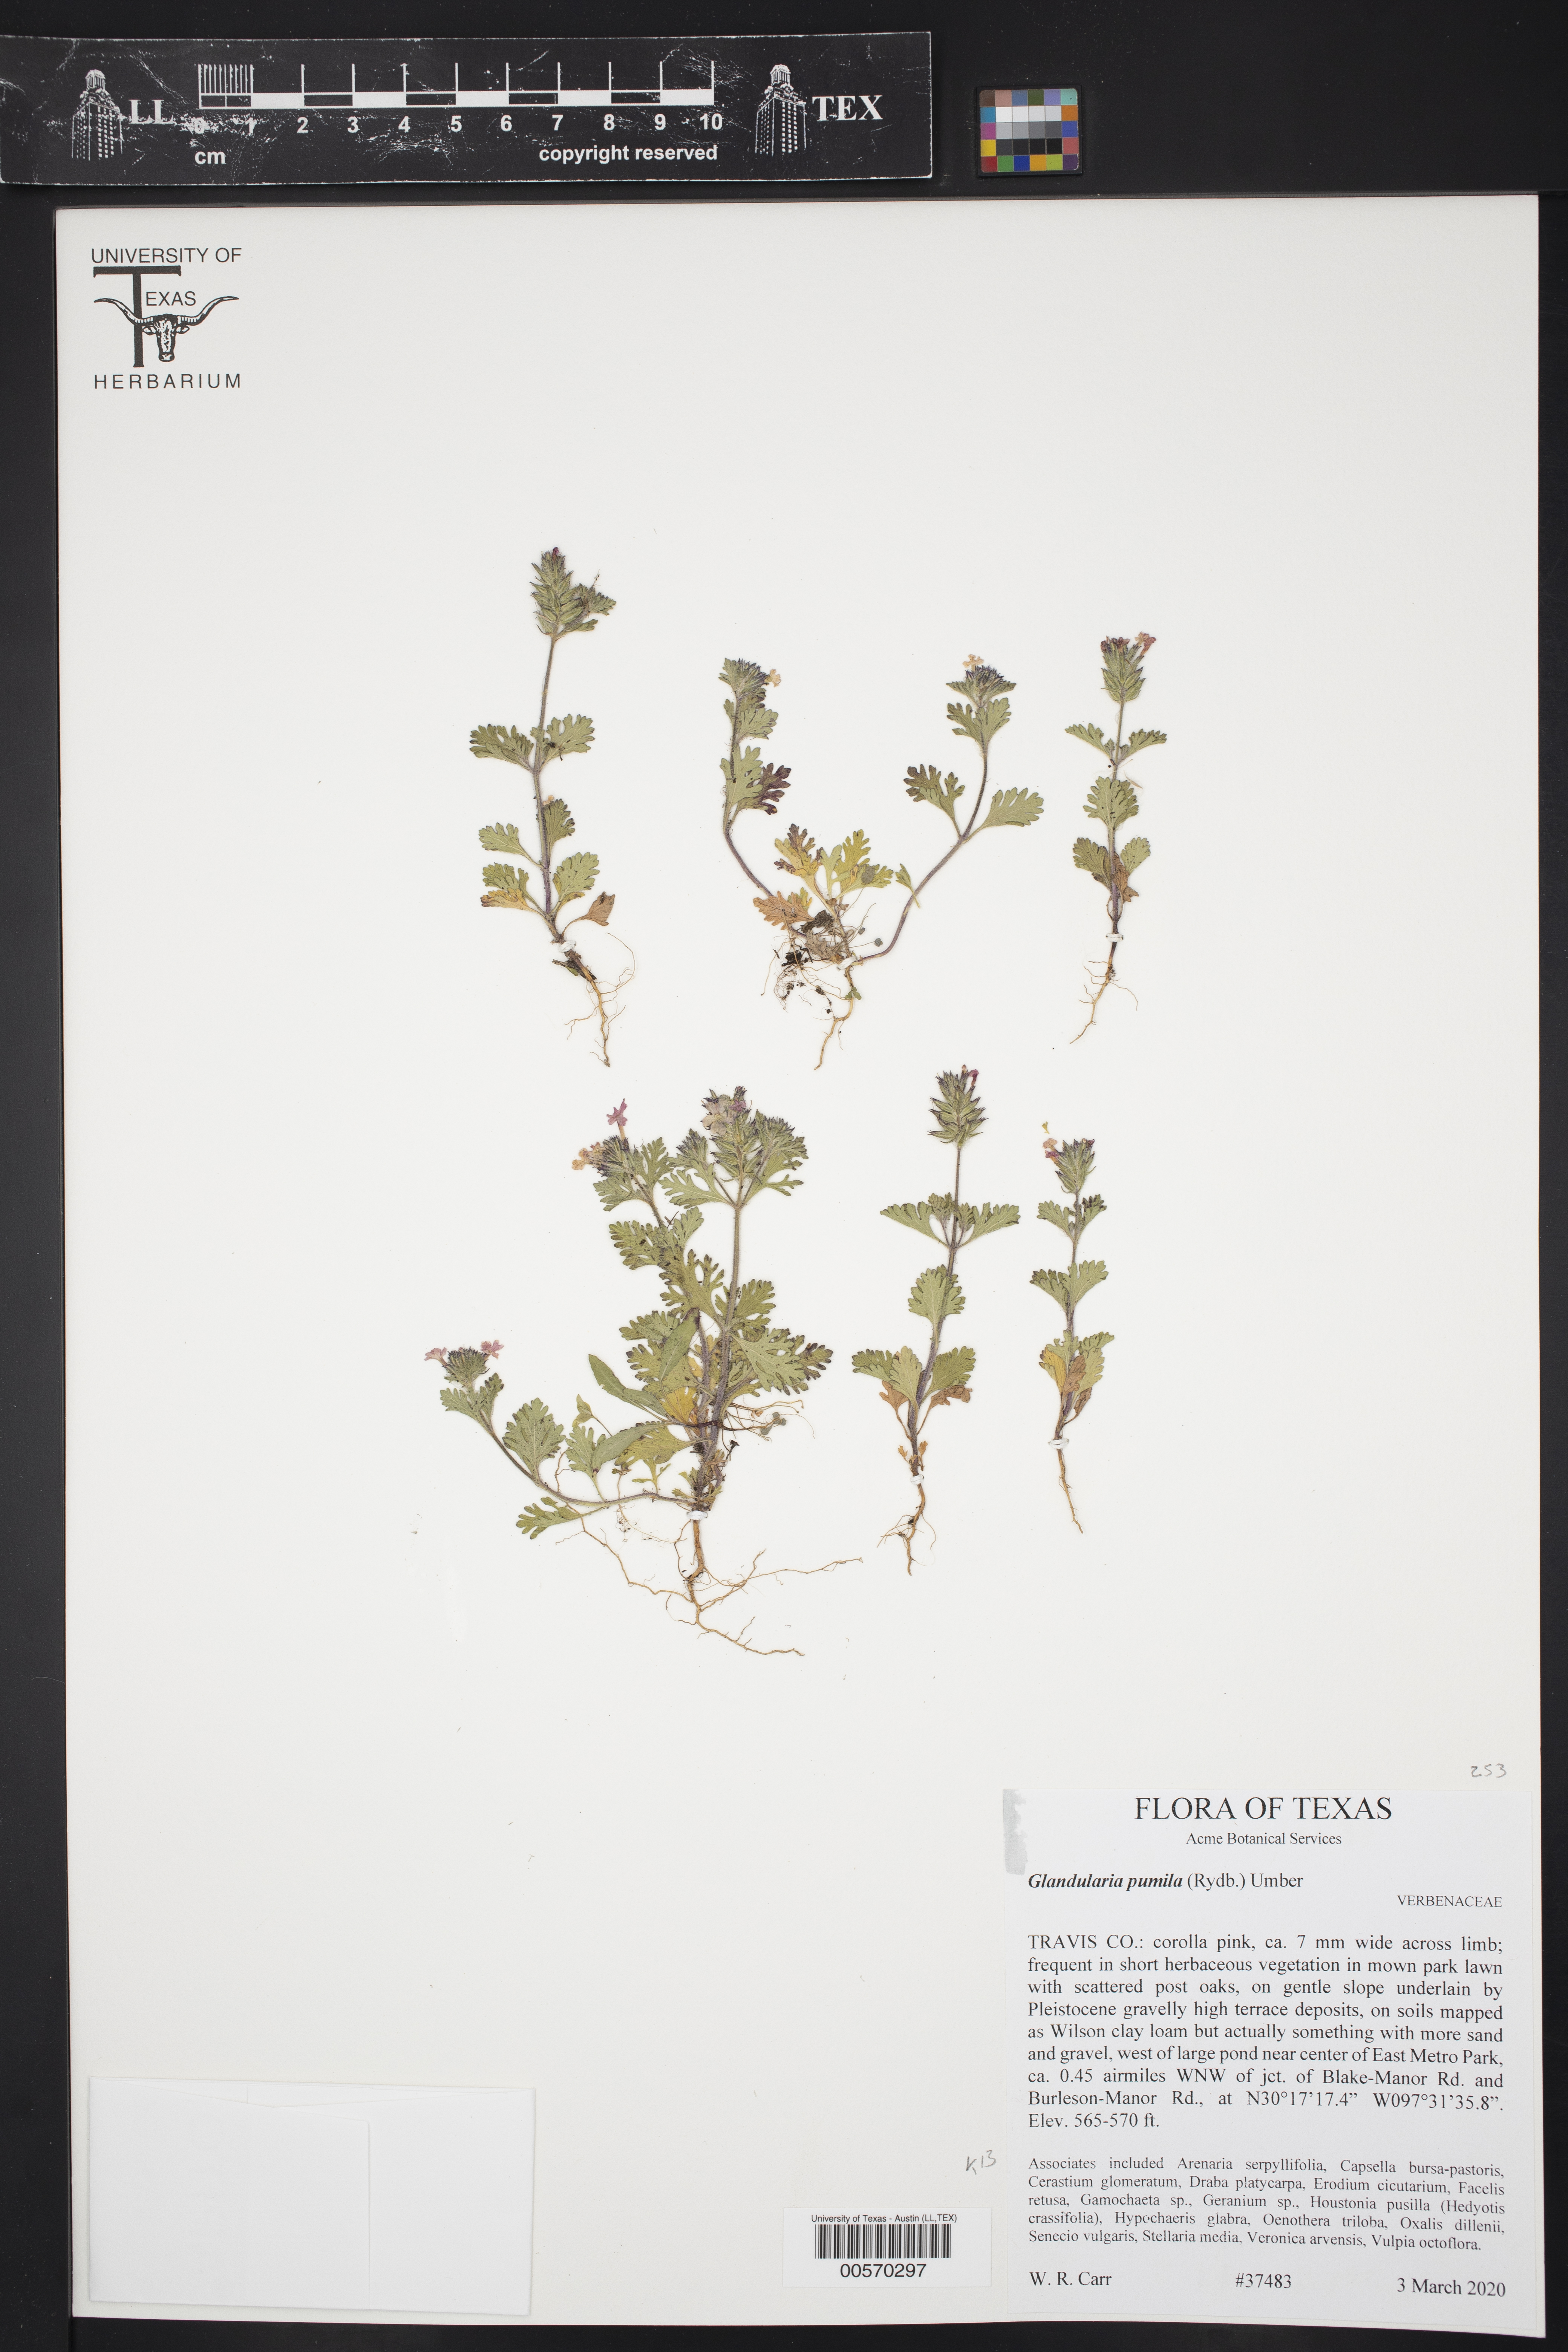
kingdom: Plantae
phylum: Tracheophyta
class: Magnoliopsida
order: Lamiales
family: Verbenaceae
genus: Verbena
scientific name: Verbena pumila
